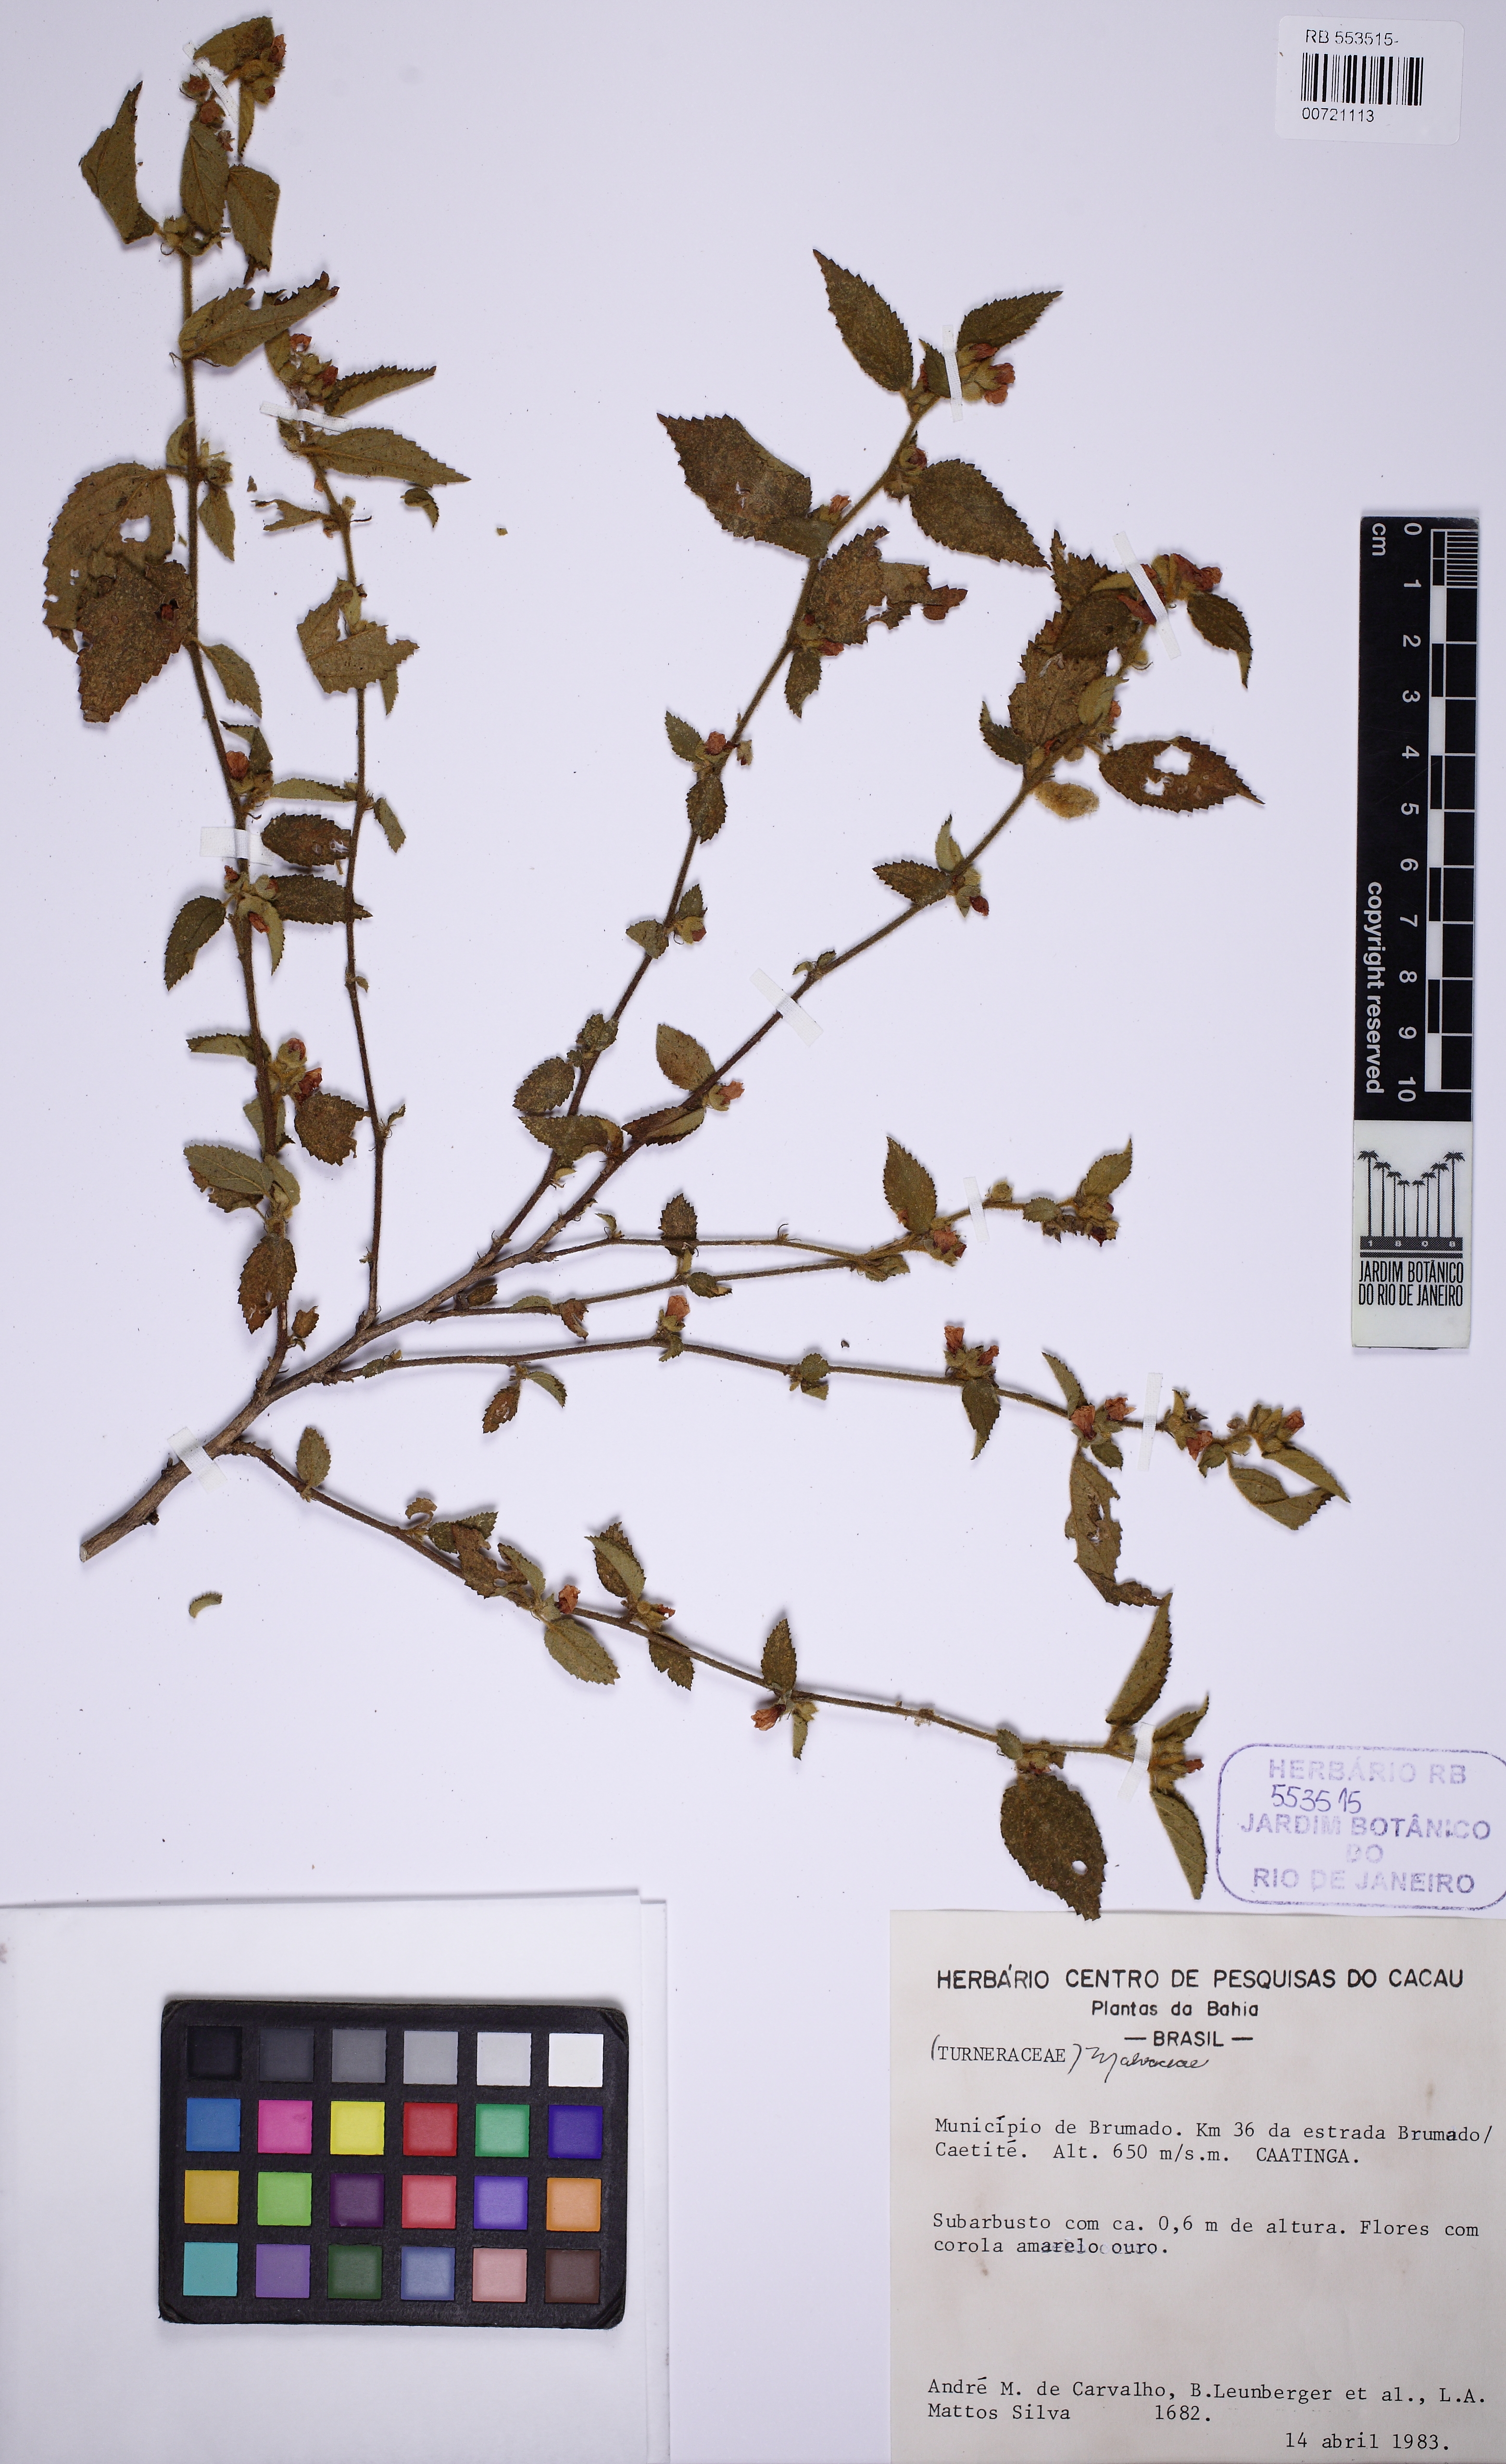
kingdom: Plantae
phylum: Tracheophyta
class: Magnoliopsida
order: Malvales
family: Malvaceae
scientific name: Malvaceae
